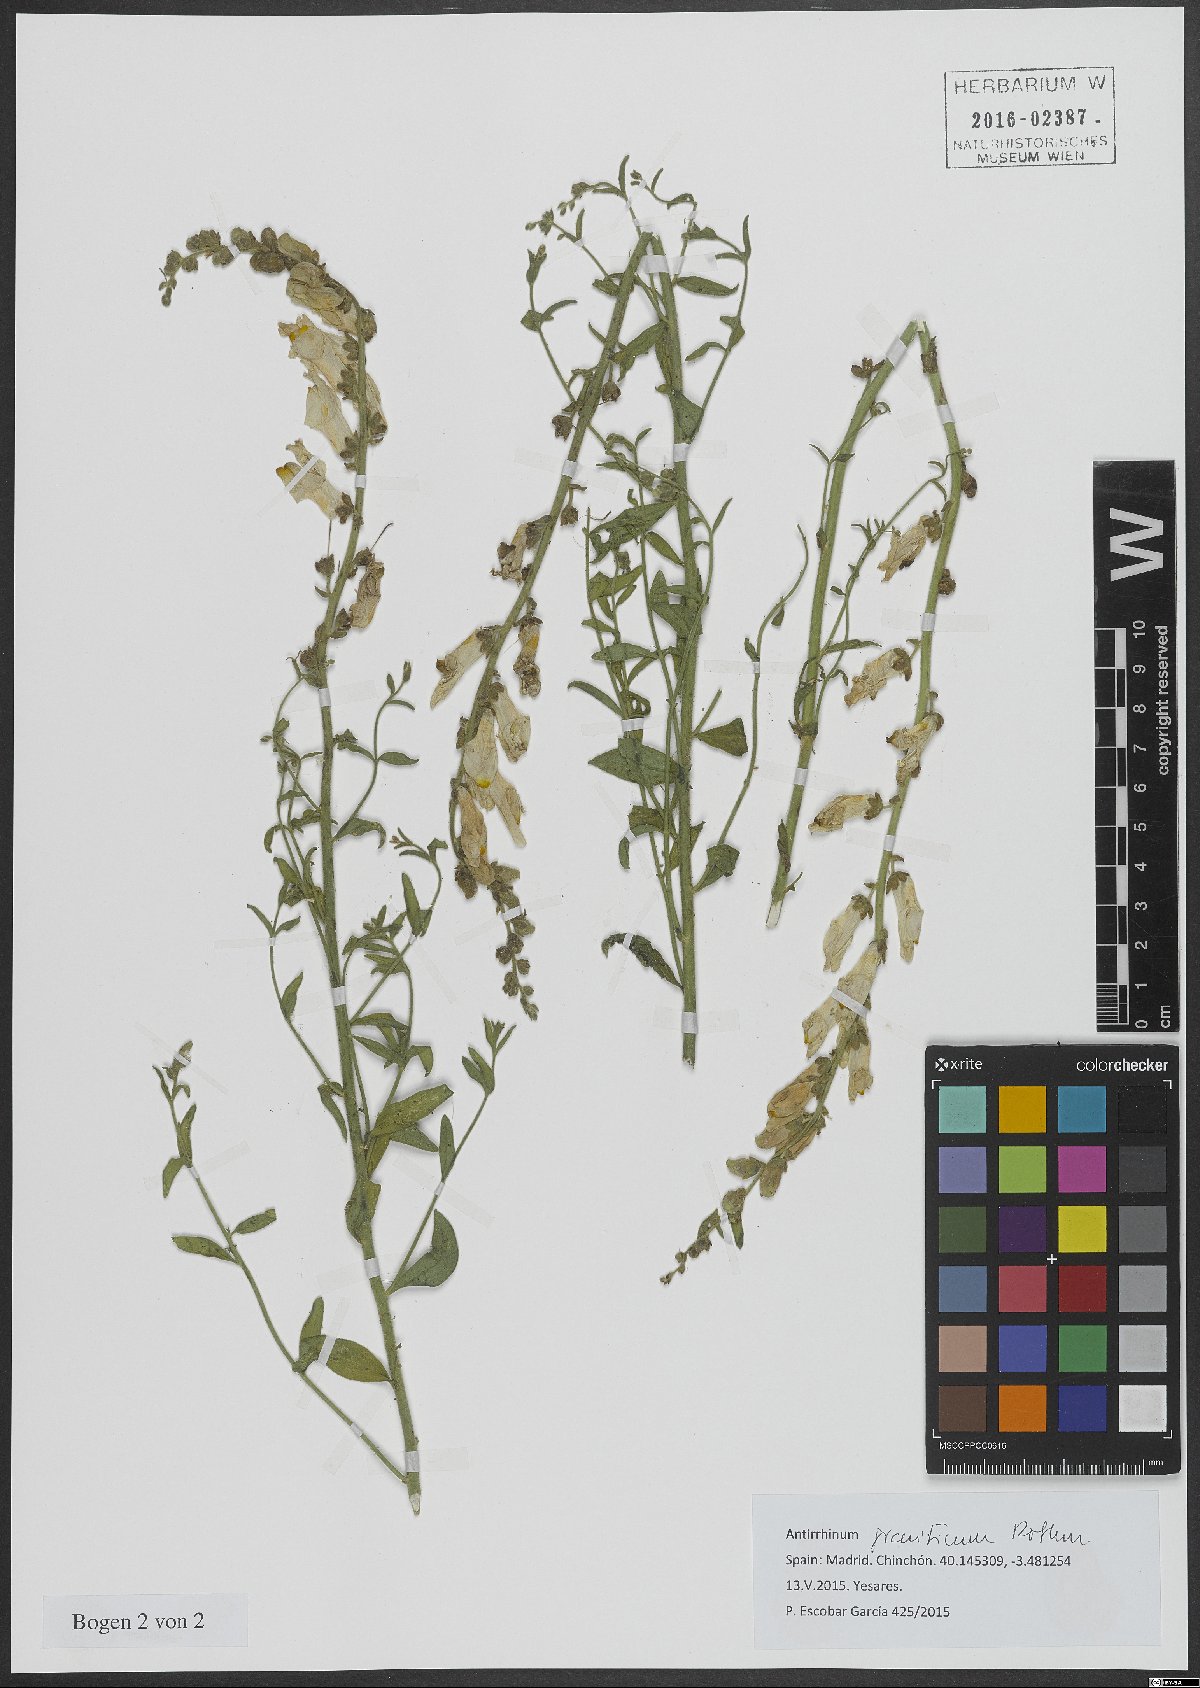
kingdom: Plantae
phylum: Tracheophyta
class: Magnoliopsida
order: Lamiales
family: Plantaginaceae
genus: Antirrhinum
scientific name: Antirrhinum graniticum
